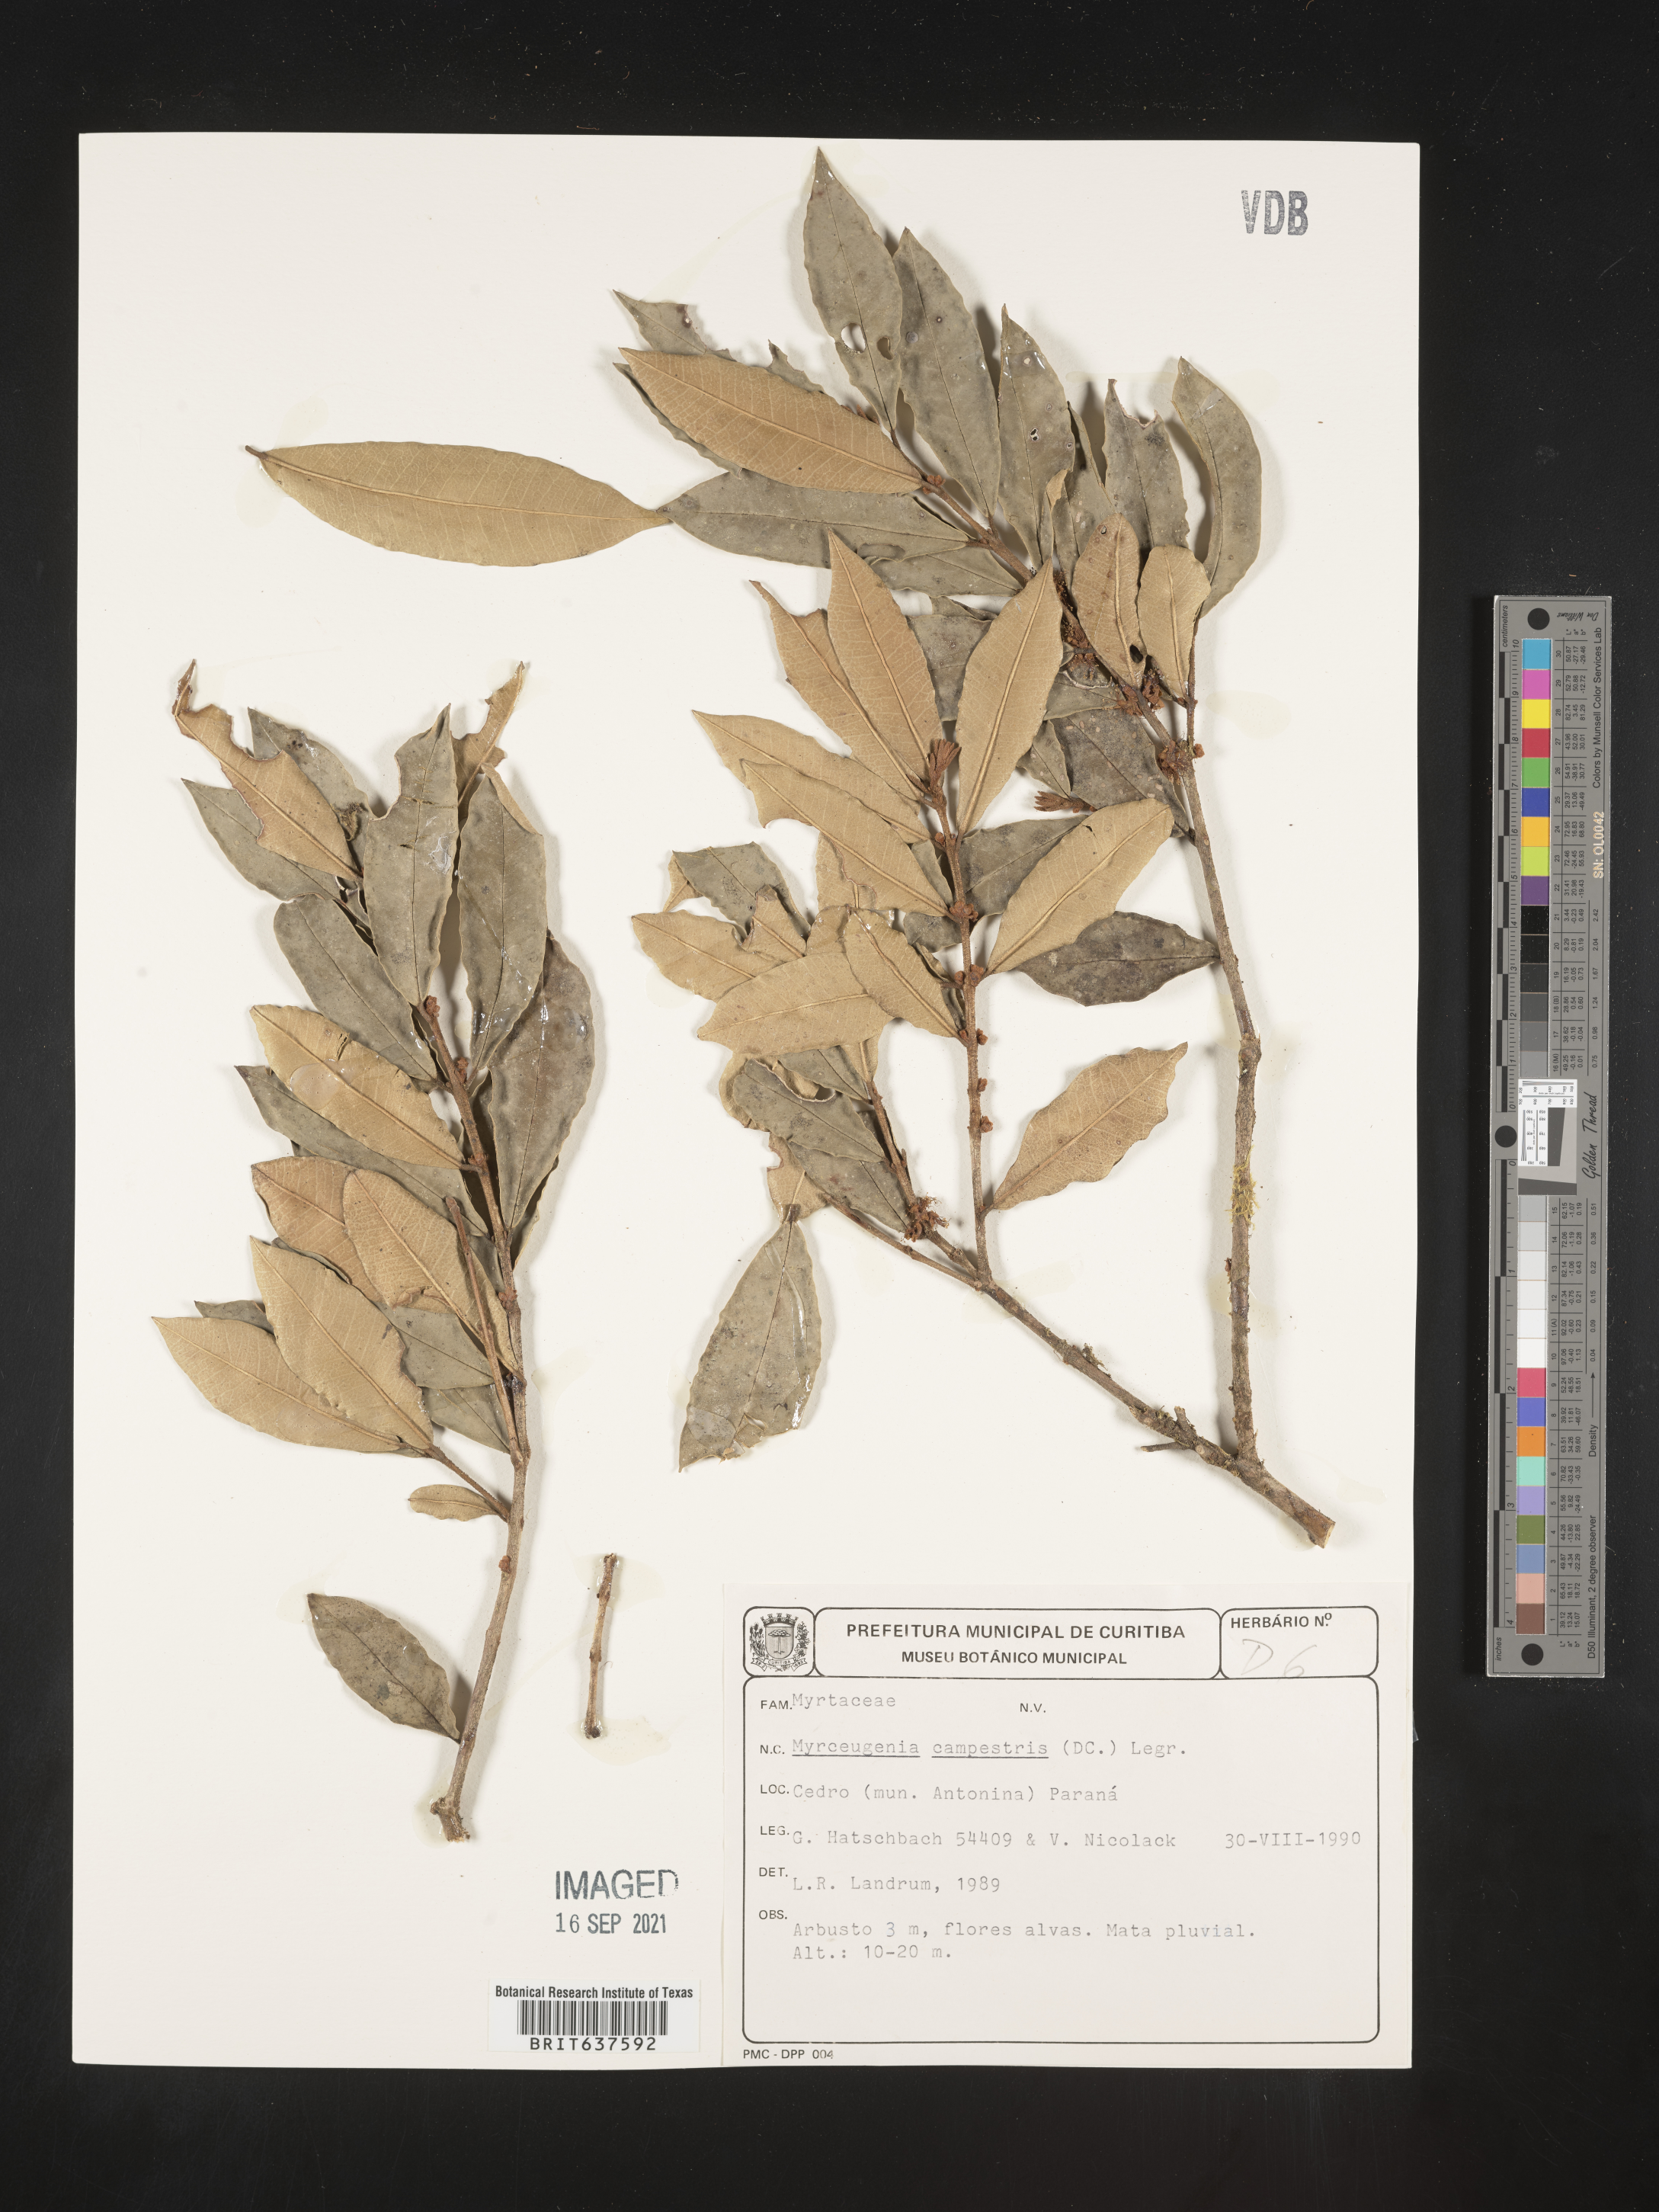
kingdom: Plantae
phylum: Tracheophyta
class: Magnoliopsida
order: Myrtales
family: Myrtaceae
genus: Myrceugenia
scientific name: Myrceugenia
